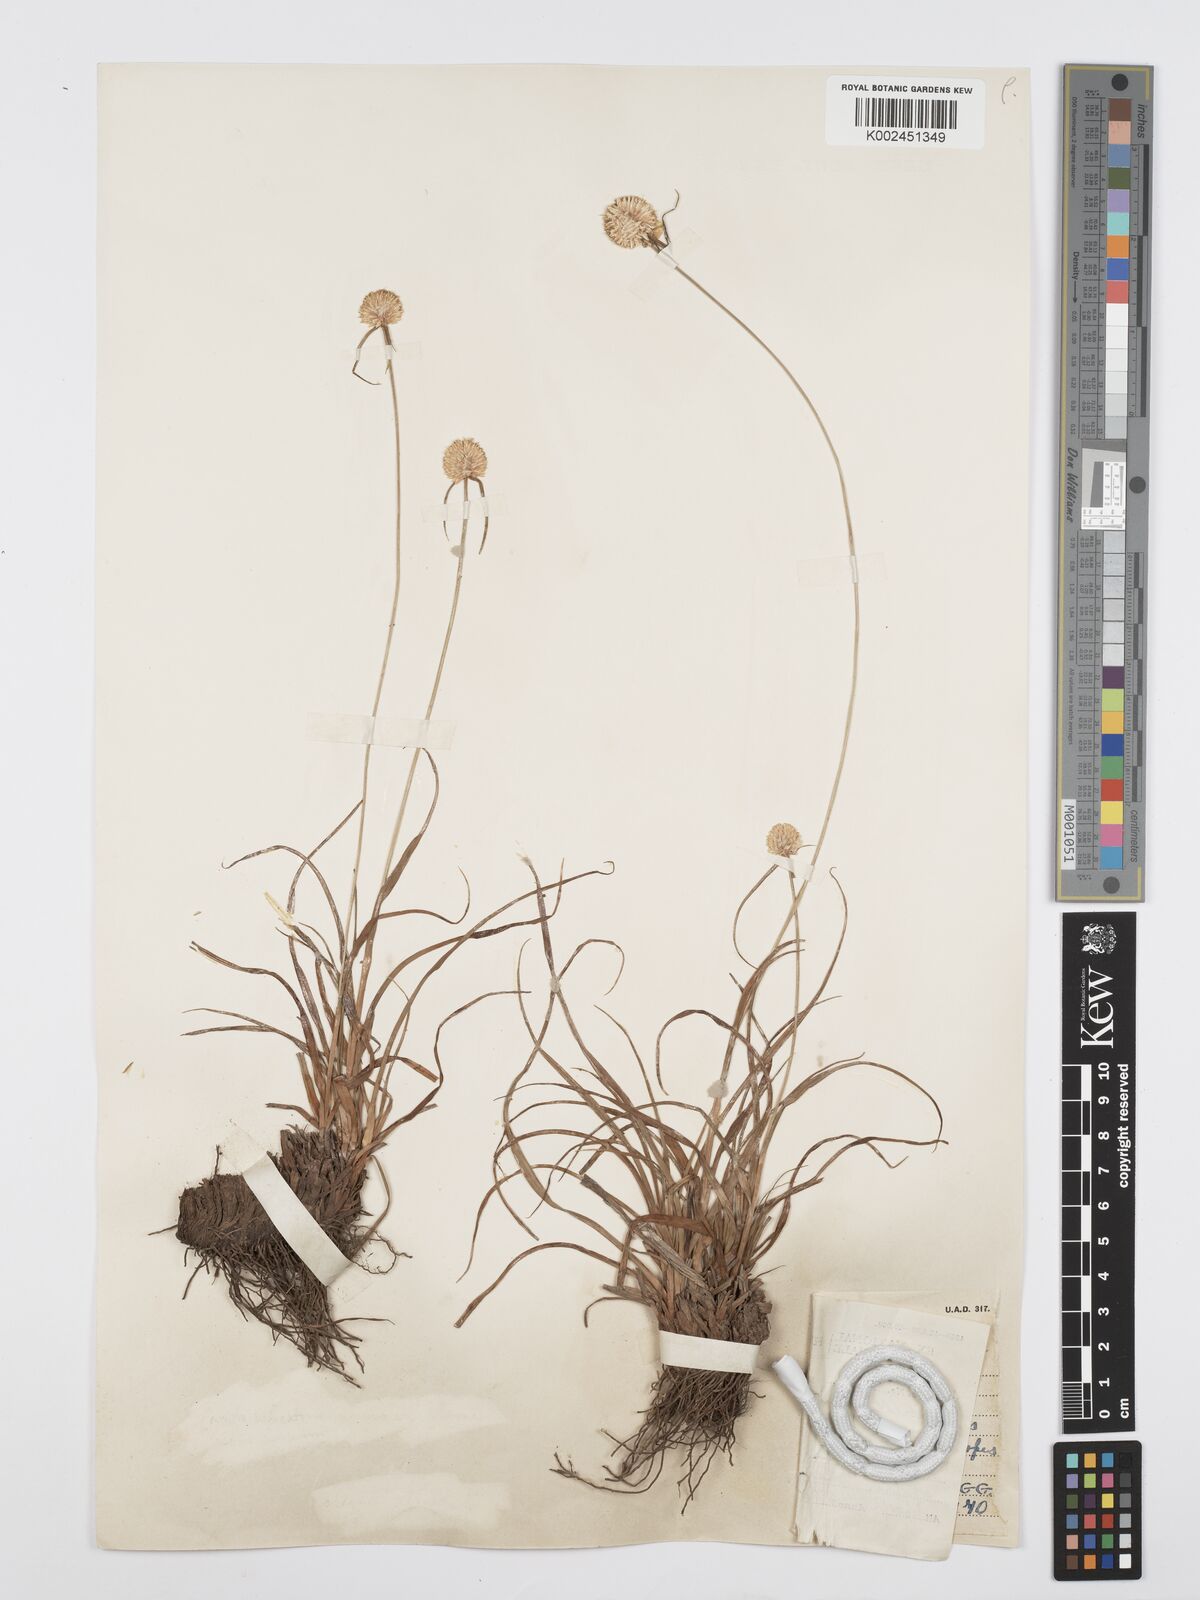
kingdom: Plantae
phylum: Tracheophyta
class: Liliopsida
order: Poales
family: Cyperaceae
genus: Cyperus
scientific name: Cyperus
